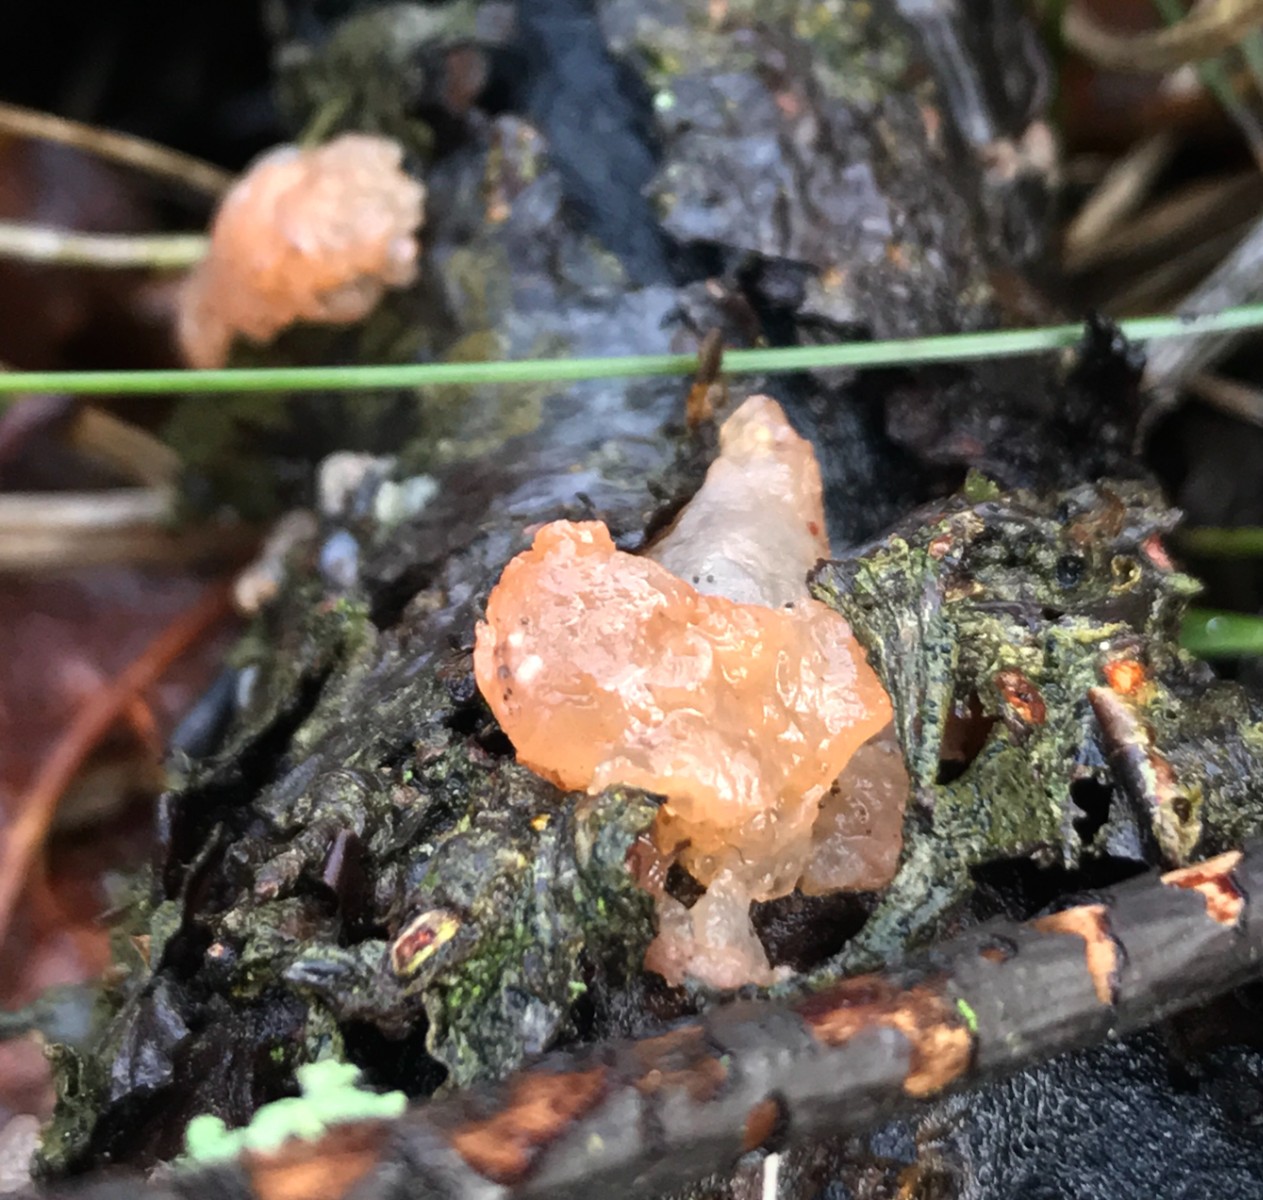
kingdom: Fungi
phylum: Basidiomycota
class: Agaricomycetes
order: Auriculariales
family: Hyaloriaceae
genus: Myxarium
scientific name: Myxarium hyalinum
